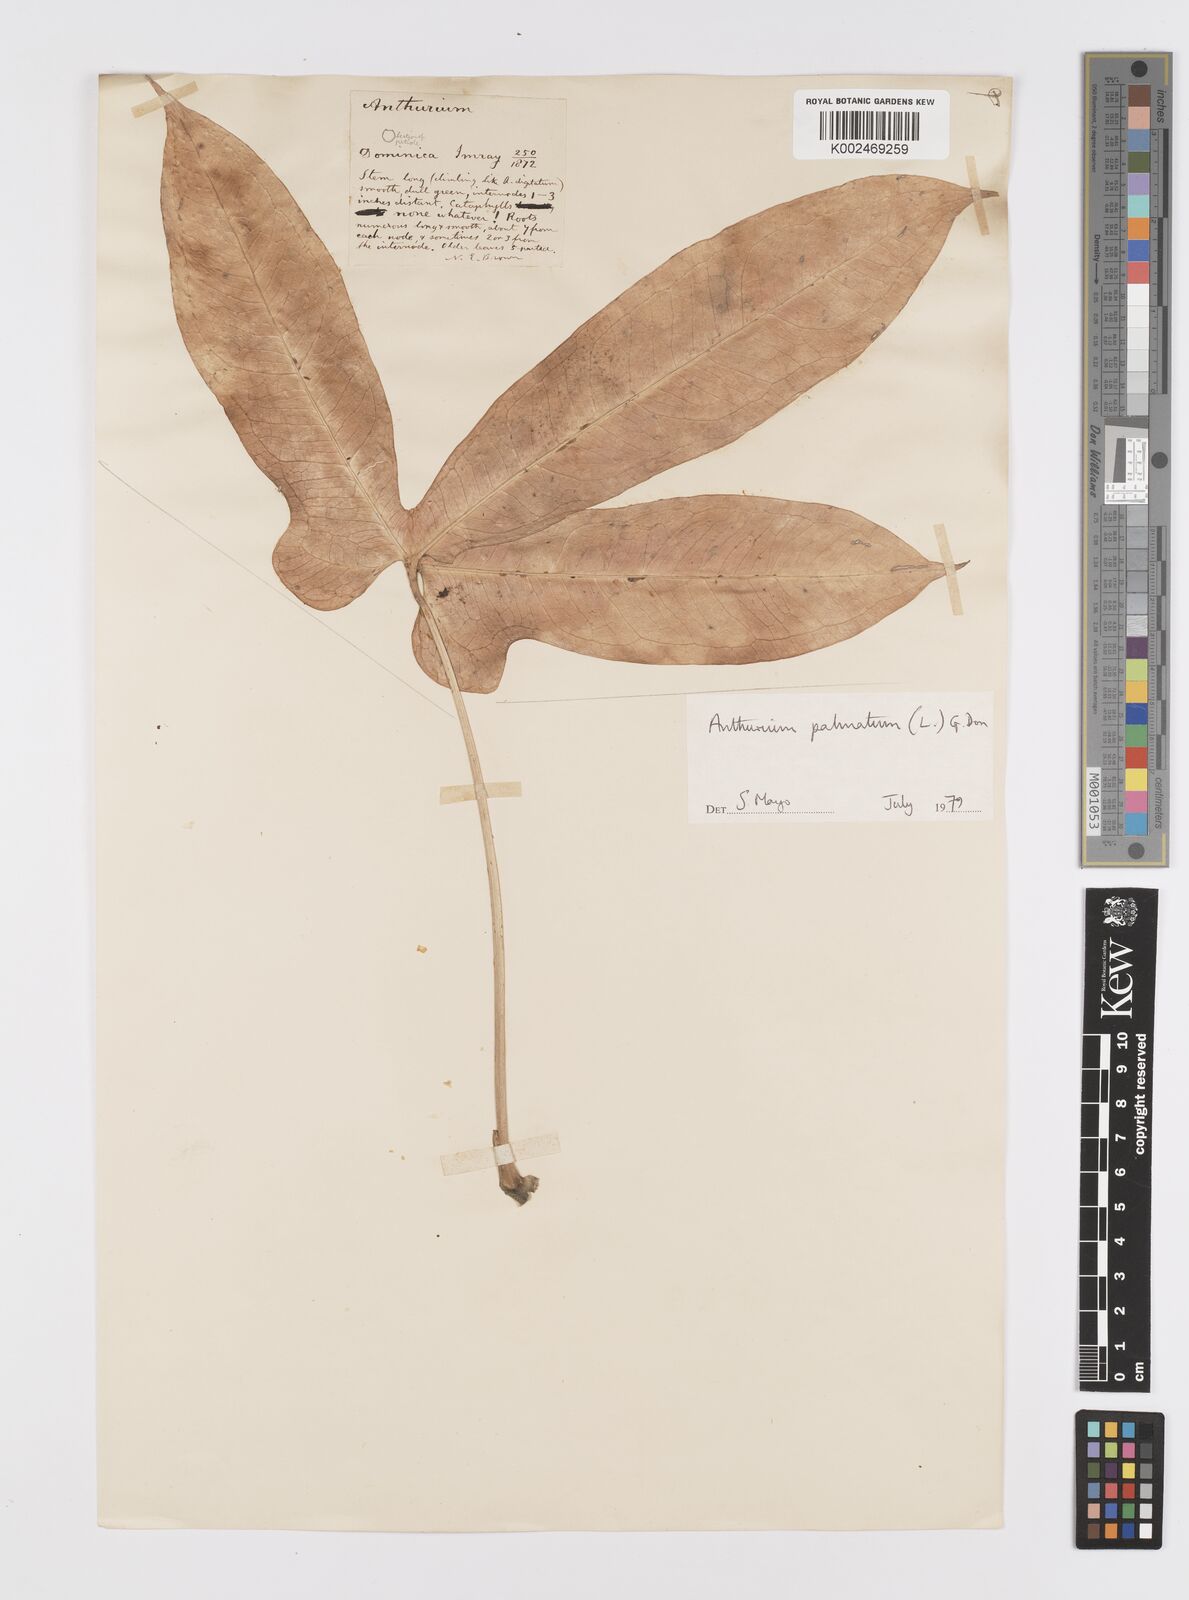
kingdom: Plantae
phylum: Tracheophyta
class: Liliopsida
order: Alismatales
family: Araceae
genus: Anthurium
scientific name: Anthurium palmatum
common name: Mibi
